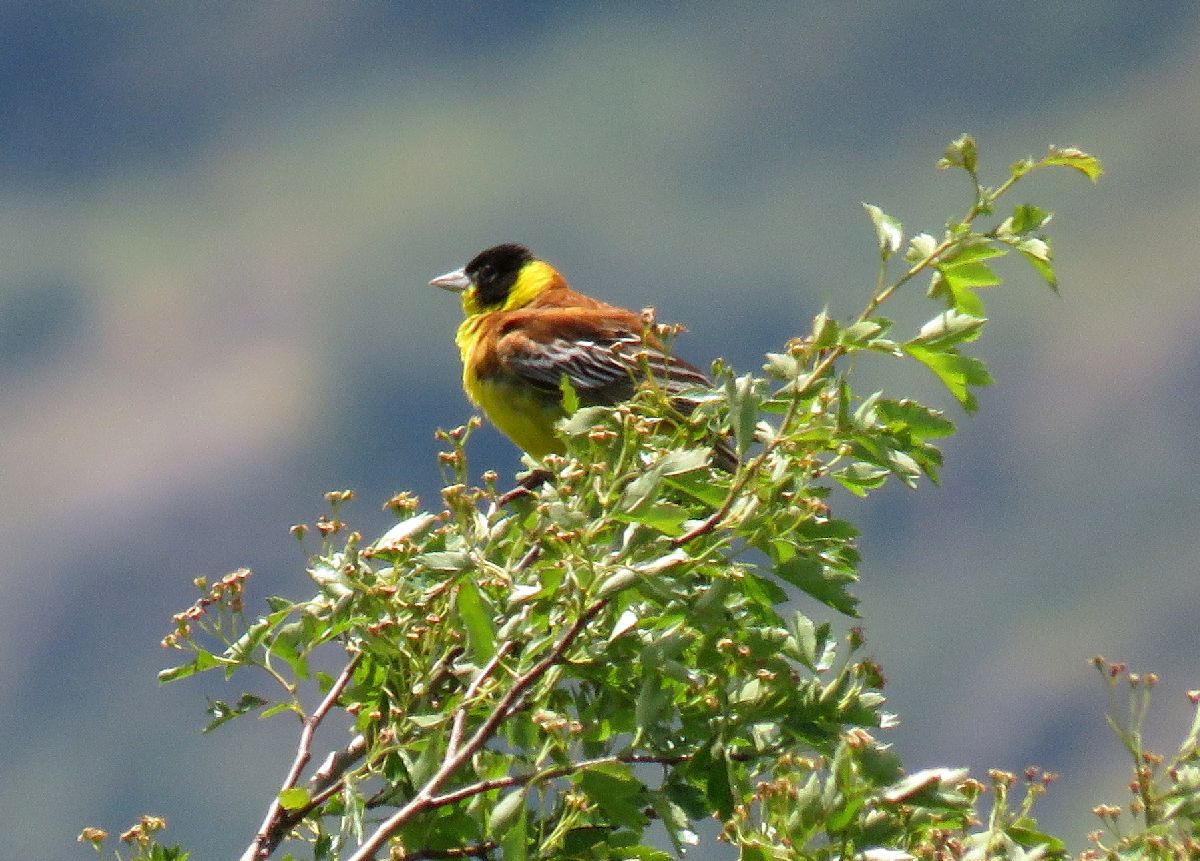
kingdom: Animalia
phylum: Chordata
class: Aves
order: Passeriformes
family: Emberizidae
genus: Emberiza
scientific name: Emberiza melanocephala
